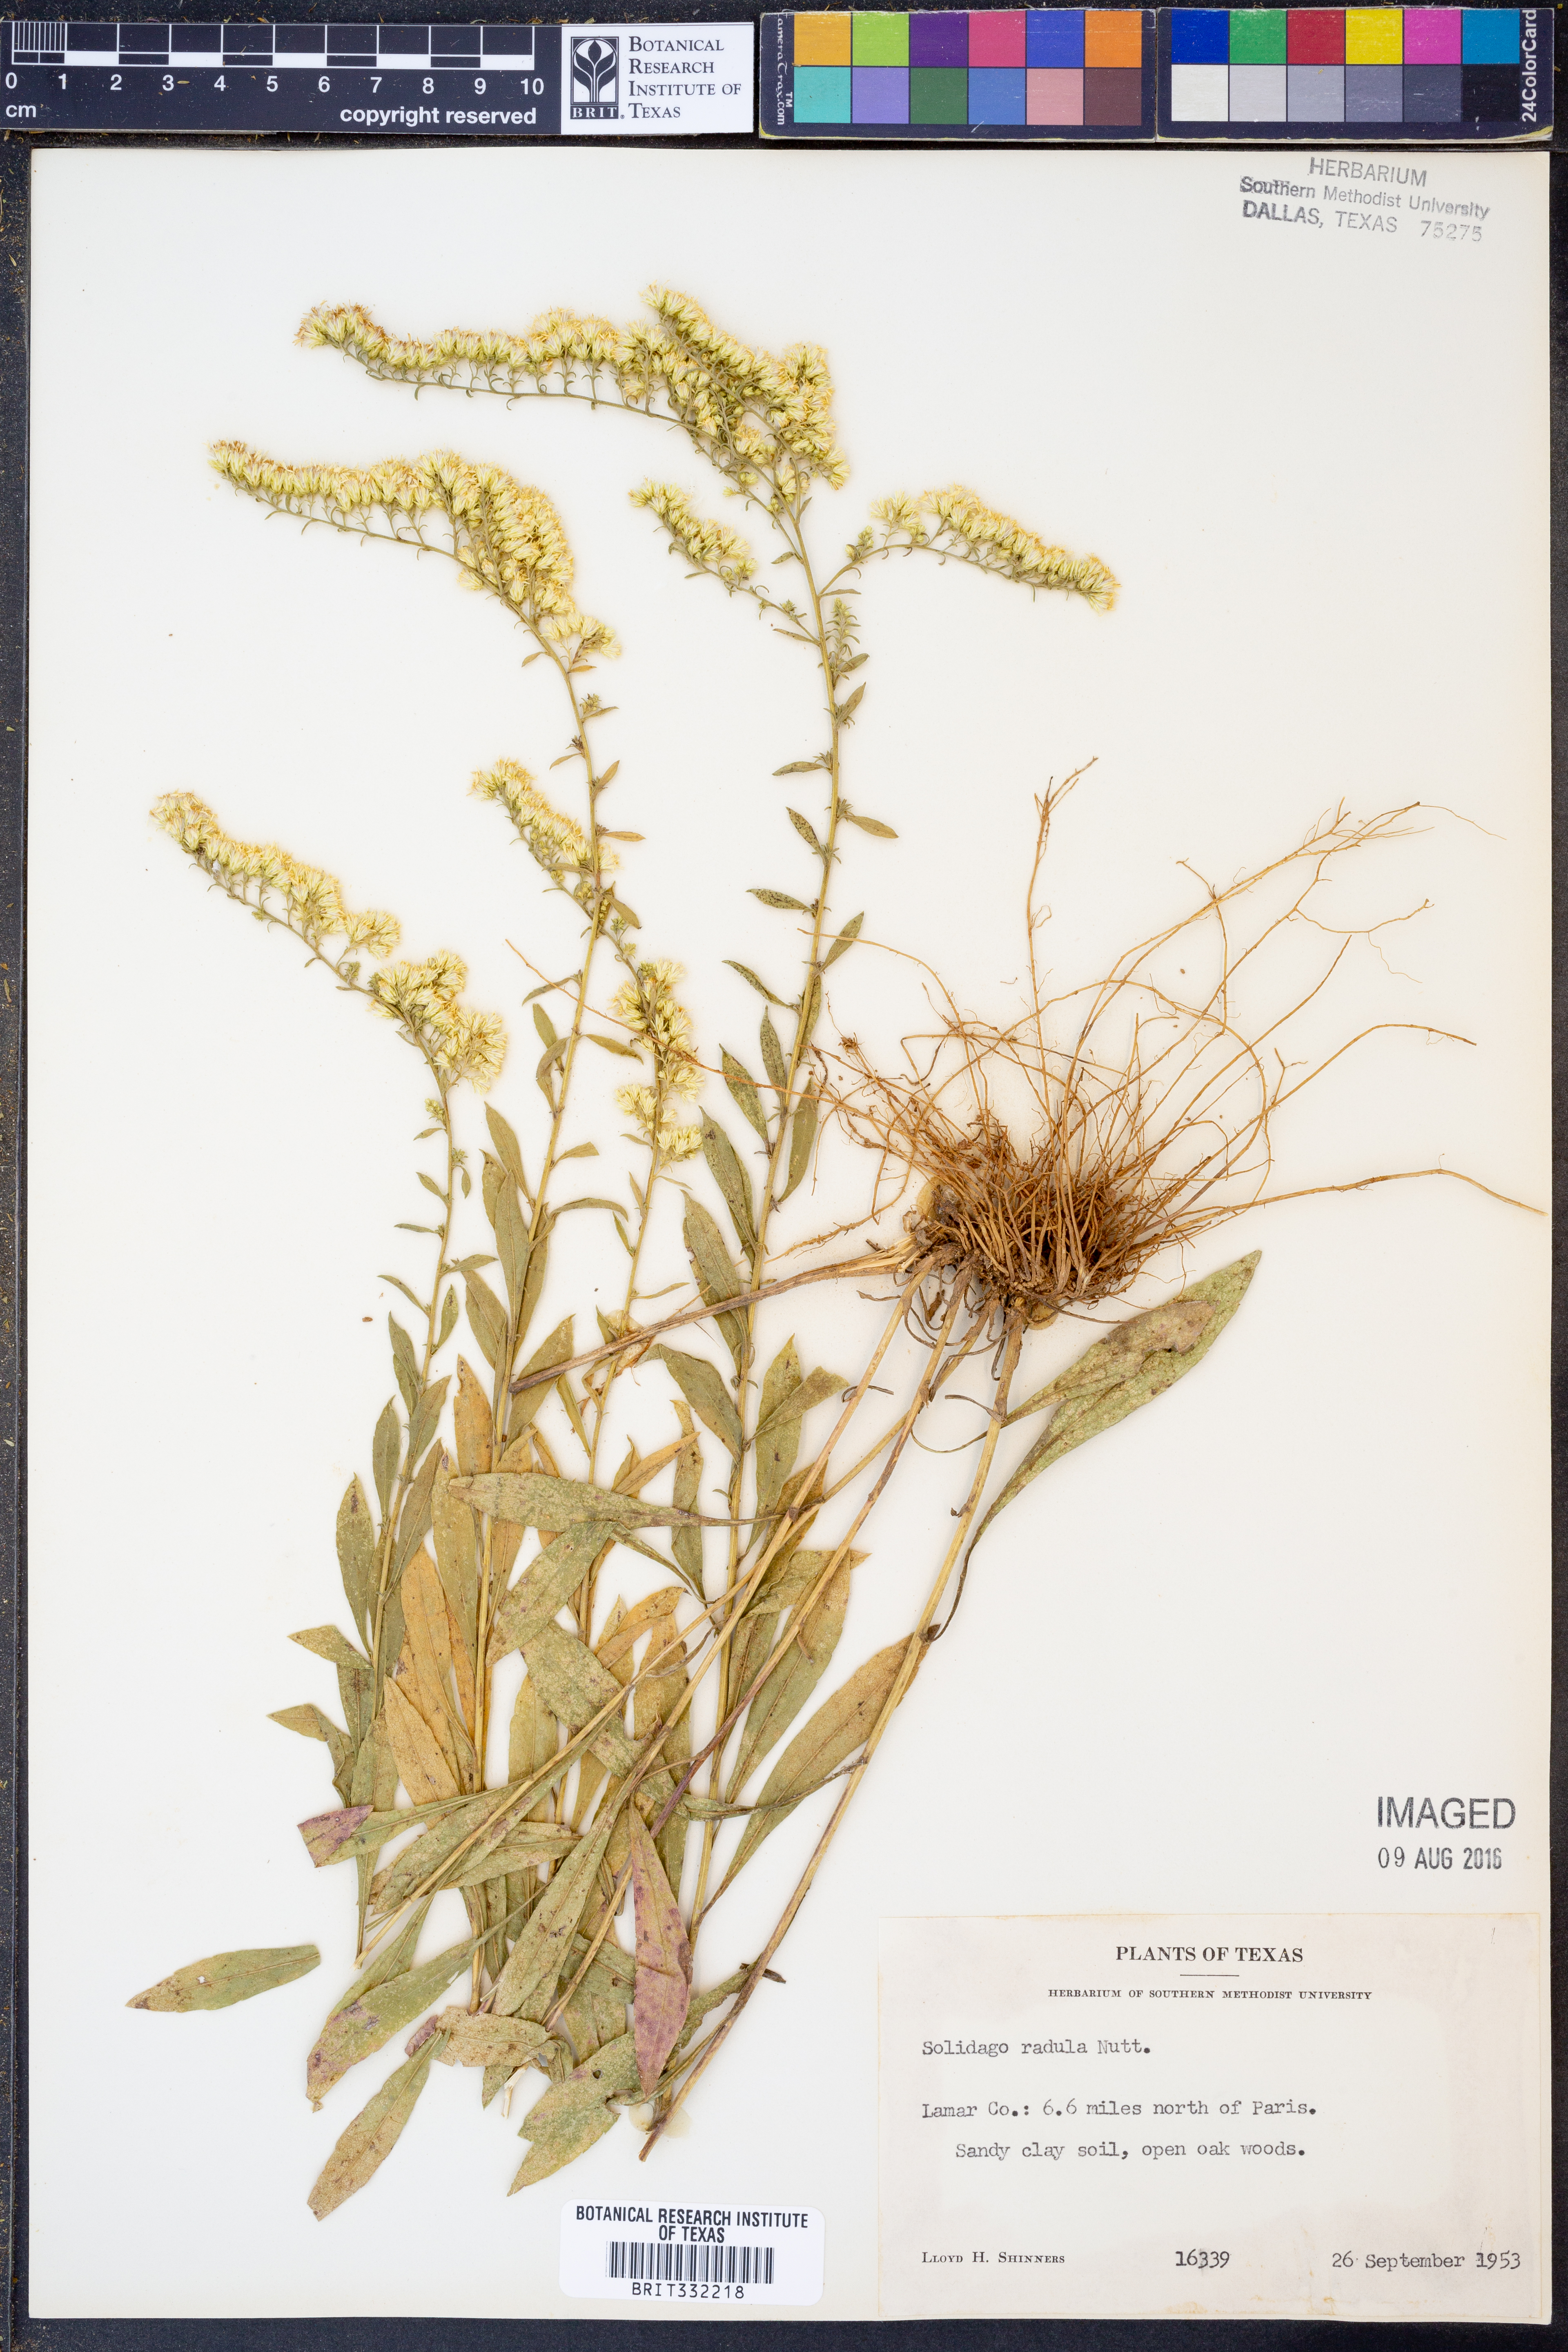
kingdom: Plantae
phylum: Tracheophyta
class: Magnoliopsida
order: Asterales
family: Asteraceae
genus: Solidago
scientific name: Solidago radula
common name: Western rough goldenrod
